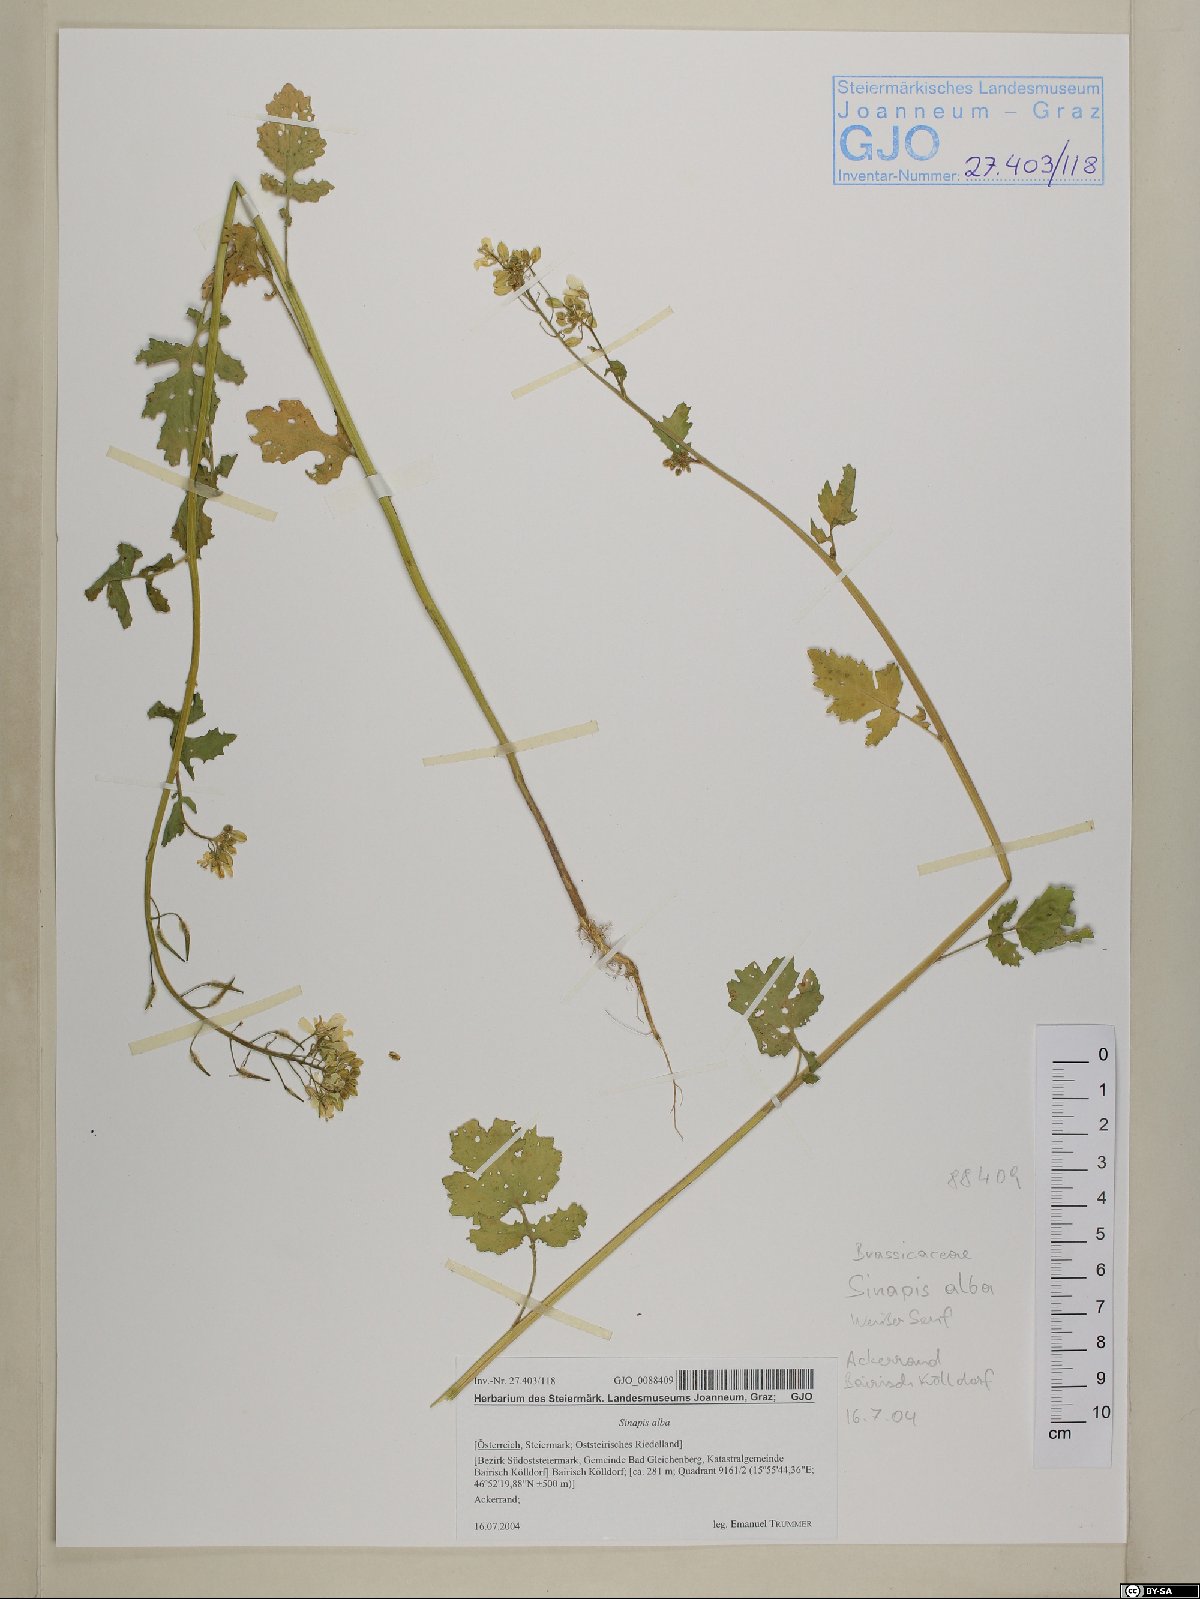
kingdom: Plantae
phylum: Tracheophyta
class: Magnoliopsida
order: Brassicales
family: Brassicaceae
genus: Sinapis
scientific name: Sinapis alba
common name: White mustard
